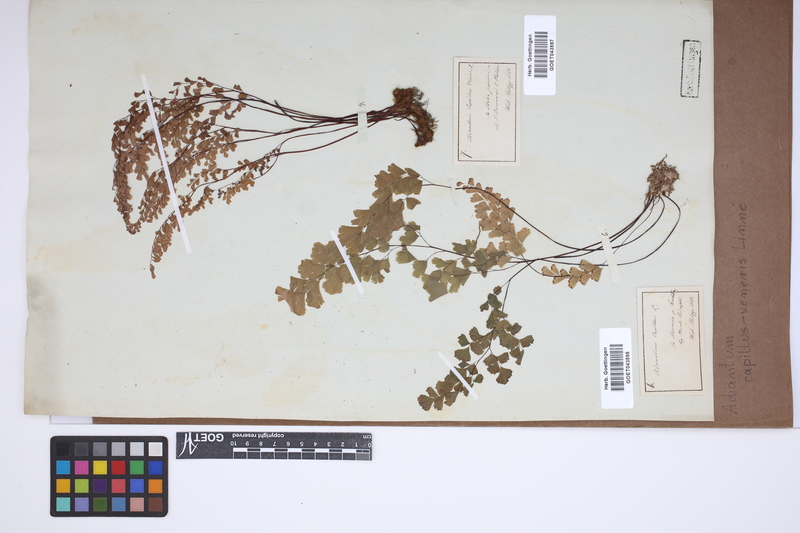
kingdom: Plantae
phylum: Tracheophyta
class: Polypodiopsida
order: Polypodiales
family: Pteridaceae
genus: Adiantum
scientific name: Adiantum capillus-veneris
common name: Maidenhair fern
